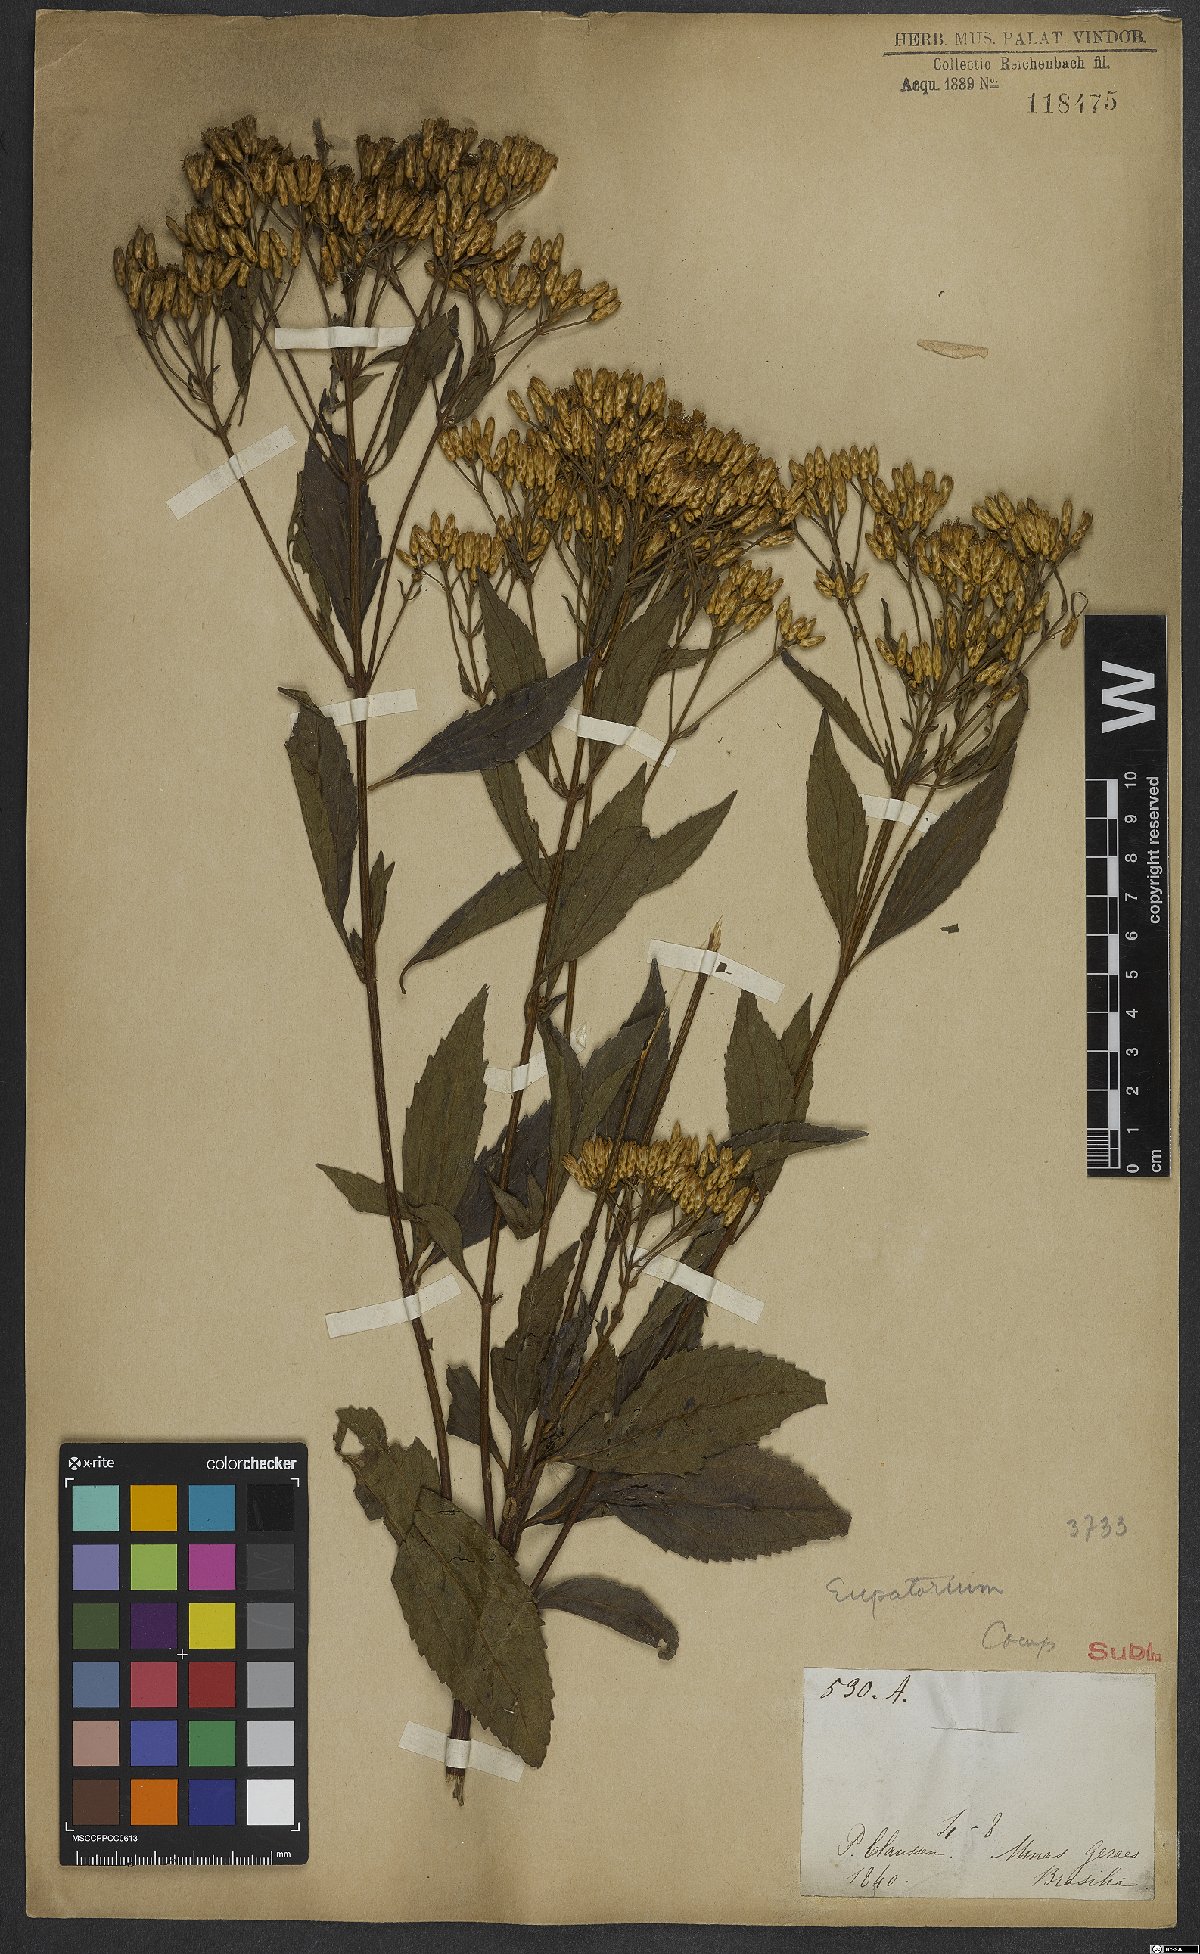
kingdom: Plantae
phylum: Tracheophyta
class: Magnoliopsida
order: Asterales
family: Asteraceae
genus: Eupatorium
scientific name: Eupatorium
